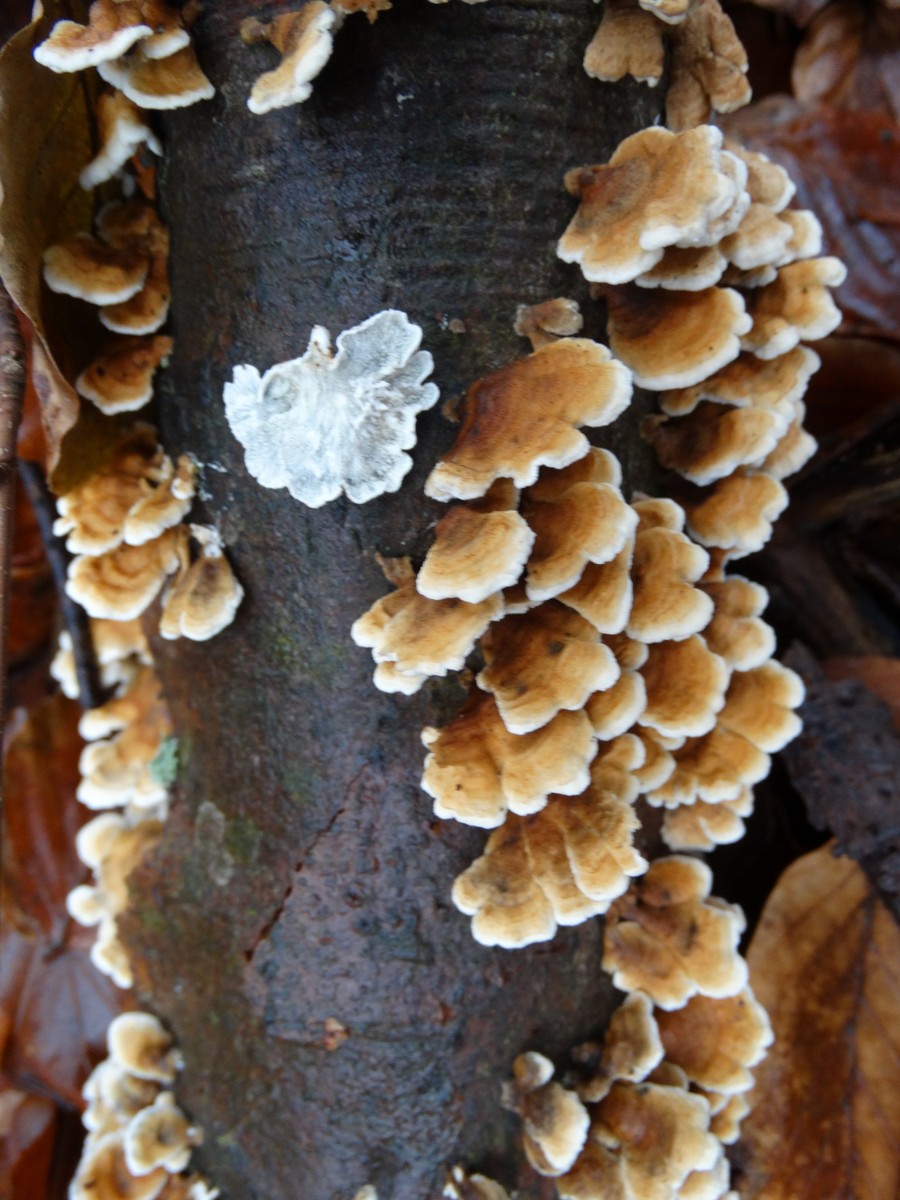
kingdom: Fungi
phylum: Basidiomycota
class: Agaricomycetes
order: Amylocorticiales
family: Amylocorticiaceae
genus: Plicaturopsis
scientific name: Plicaturopsis crispa
